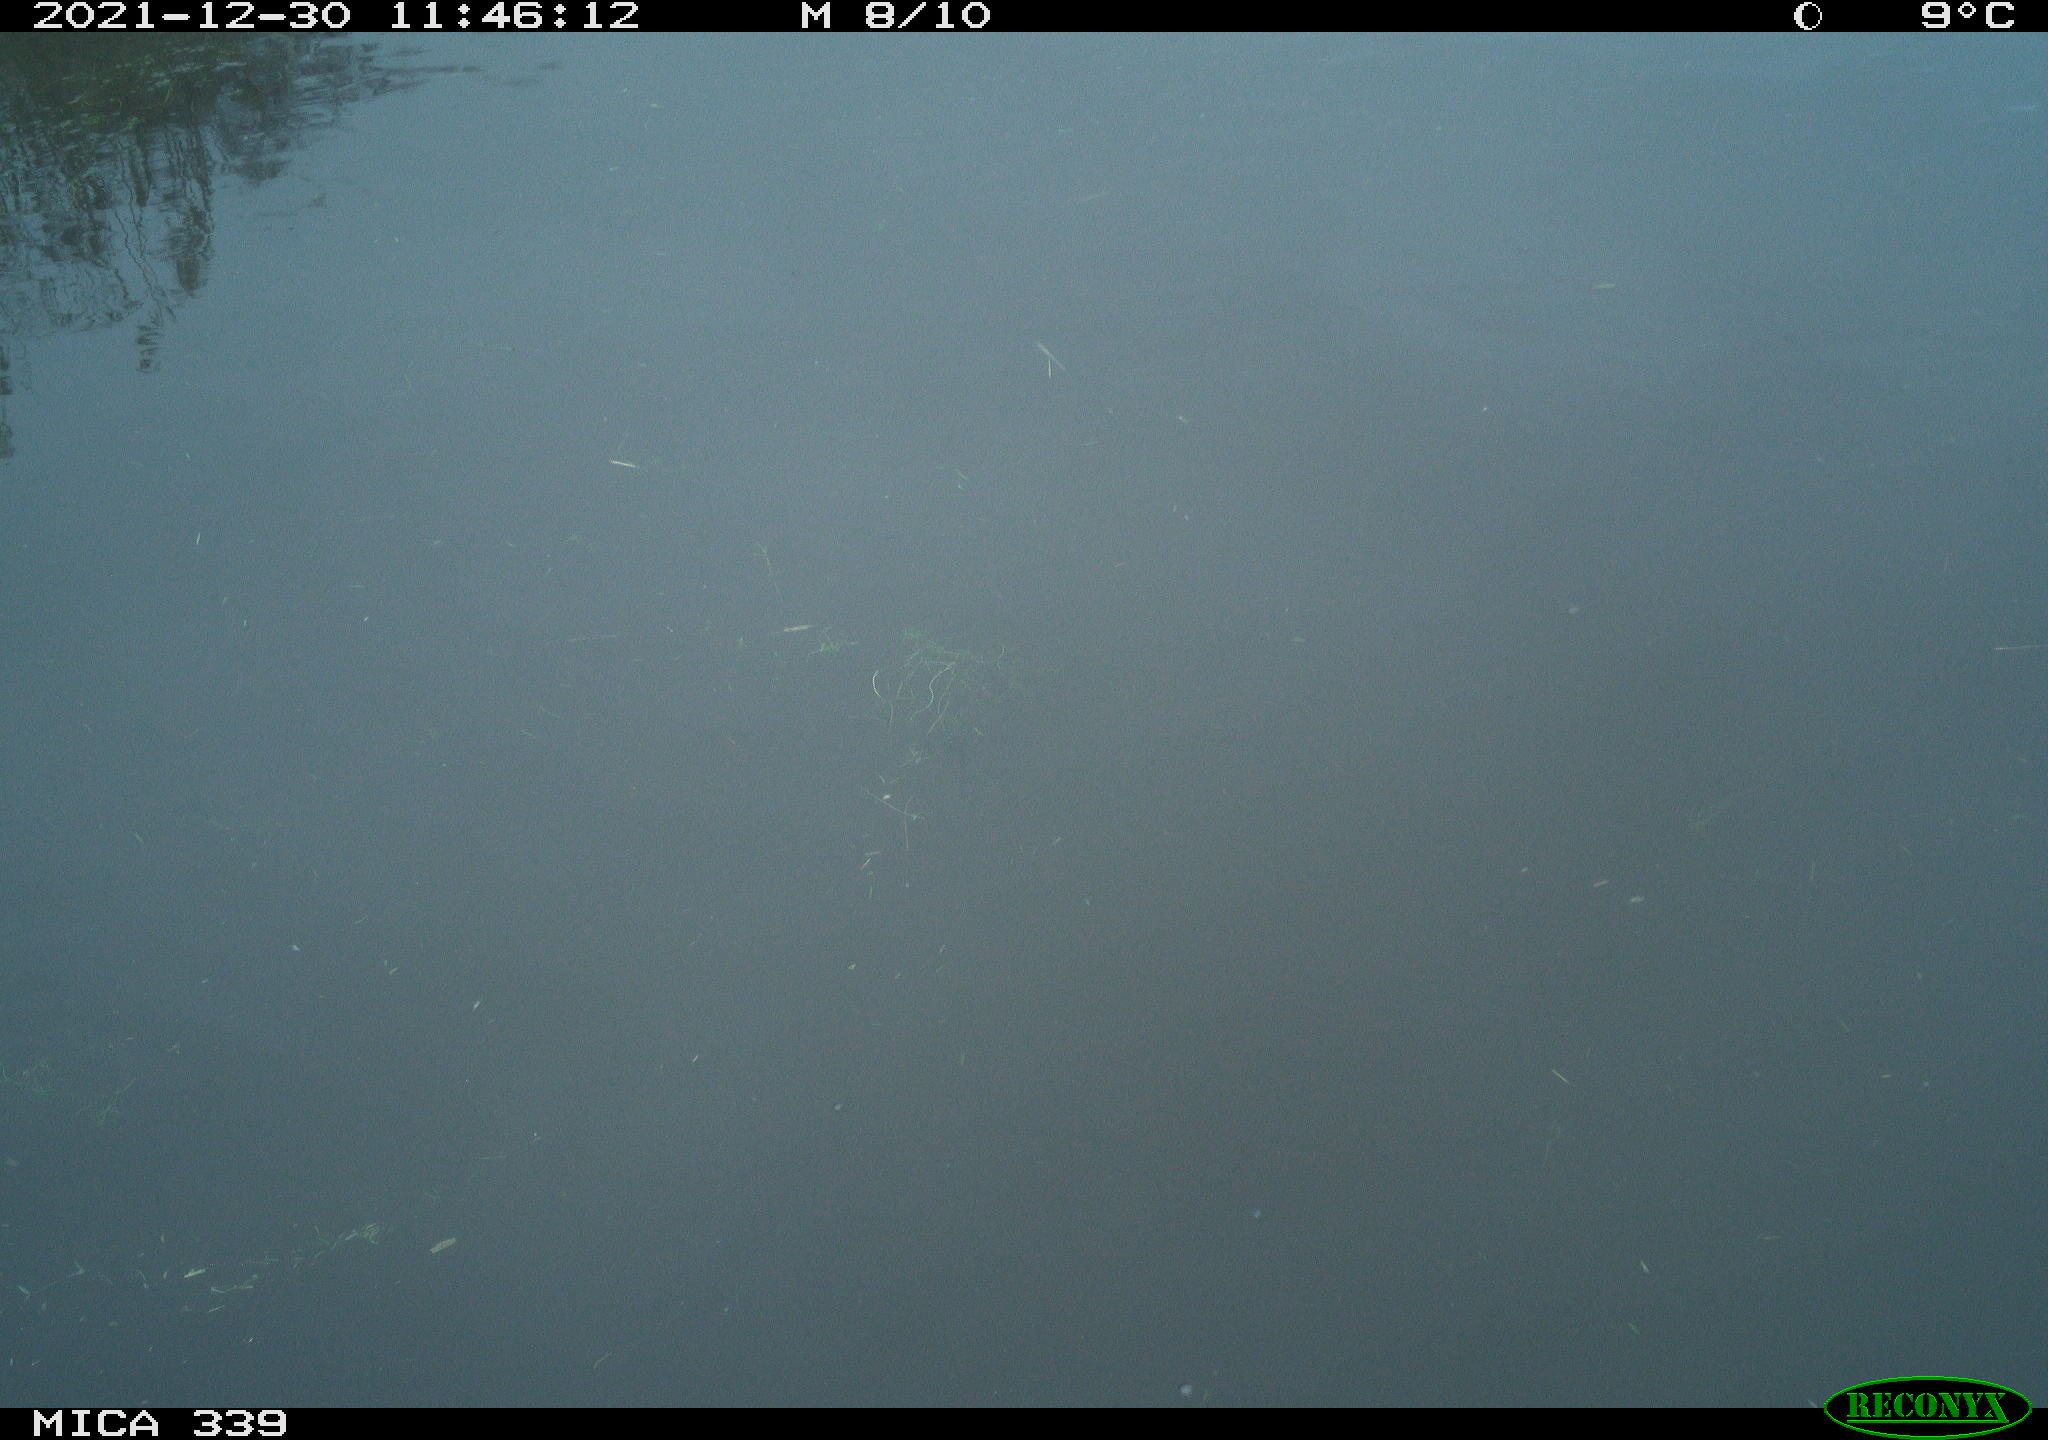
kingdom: Animalia
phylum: Chordata
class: Aves
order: Gruiformes
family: Rallidae
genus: Gallinula
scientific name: Gallinula chloropus
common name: Common moorhen
